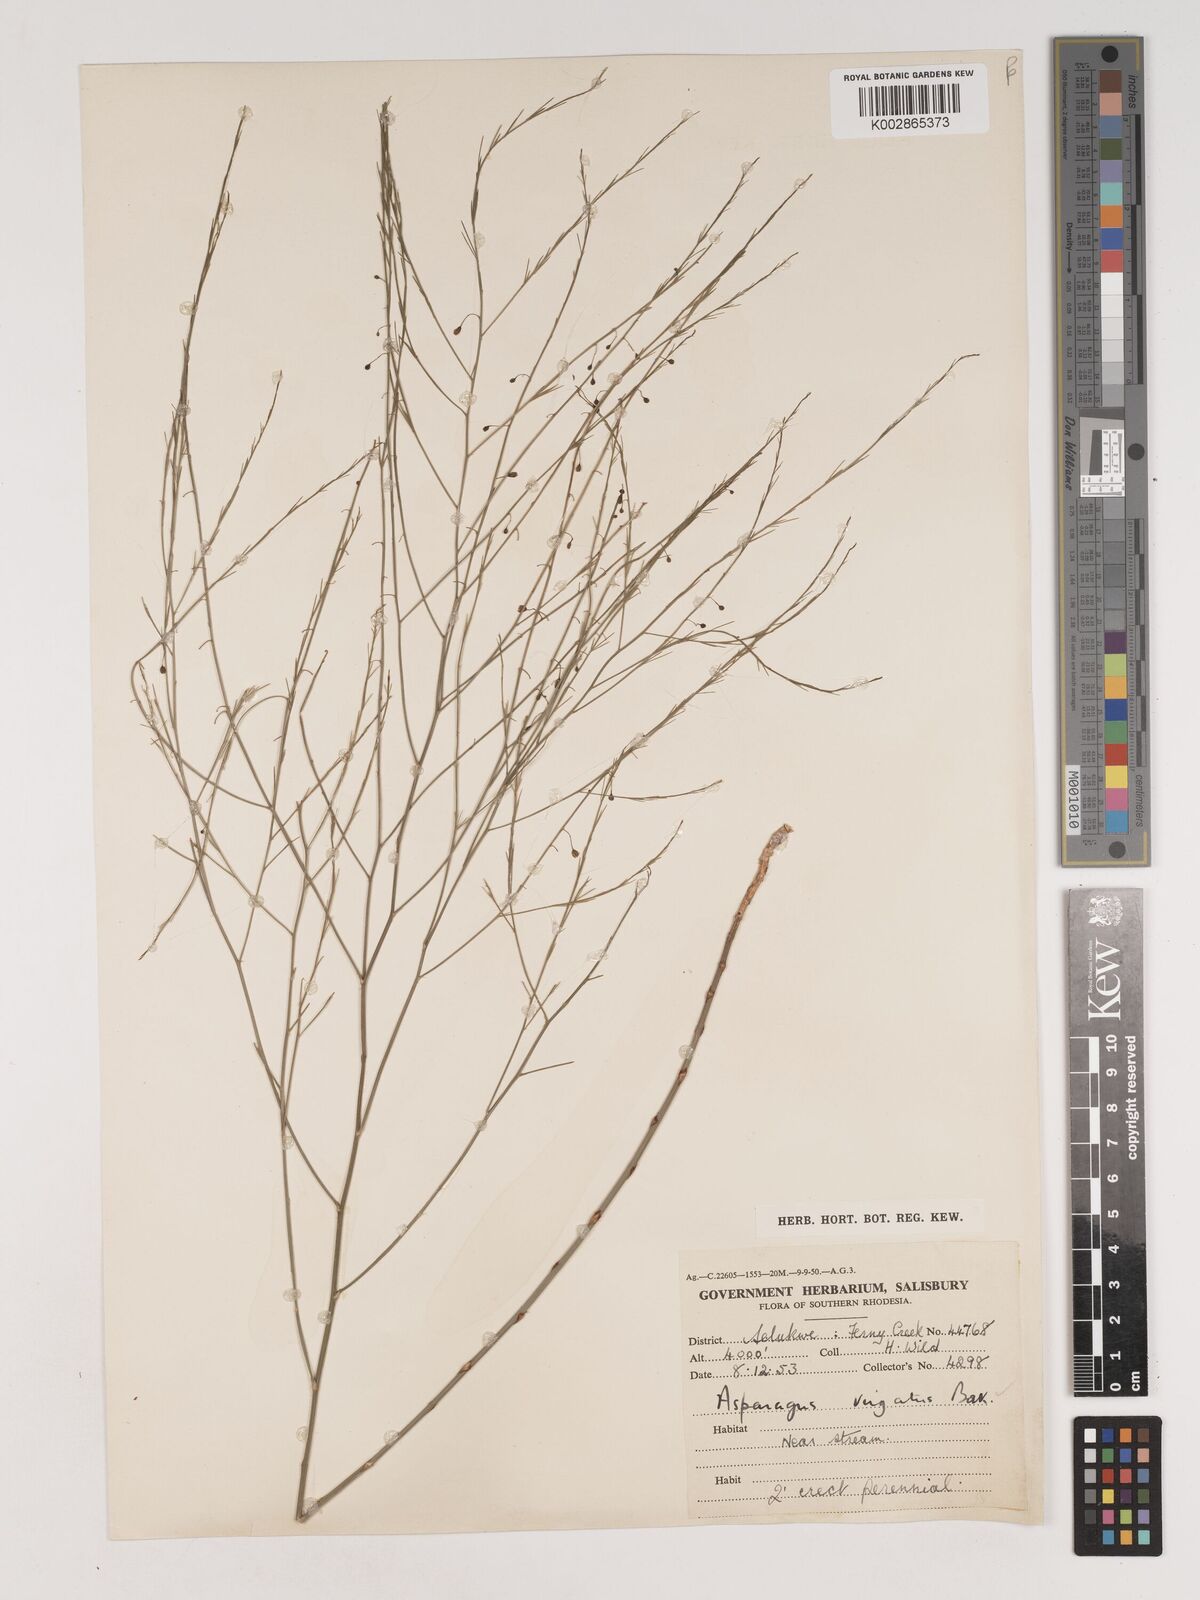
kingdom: Plantae
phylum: Tracheophyta
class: Liliopsida
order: Asparagales
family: Asparagaceae
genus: Asparagus
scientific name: Asparagus virgatus
